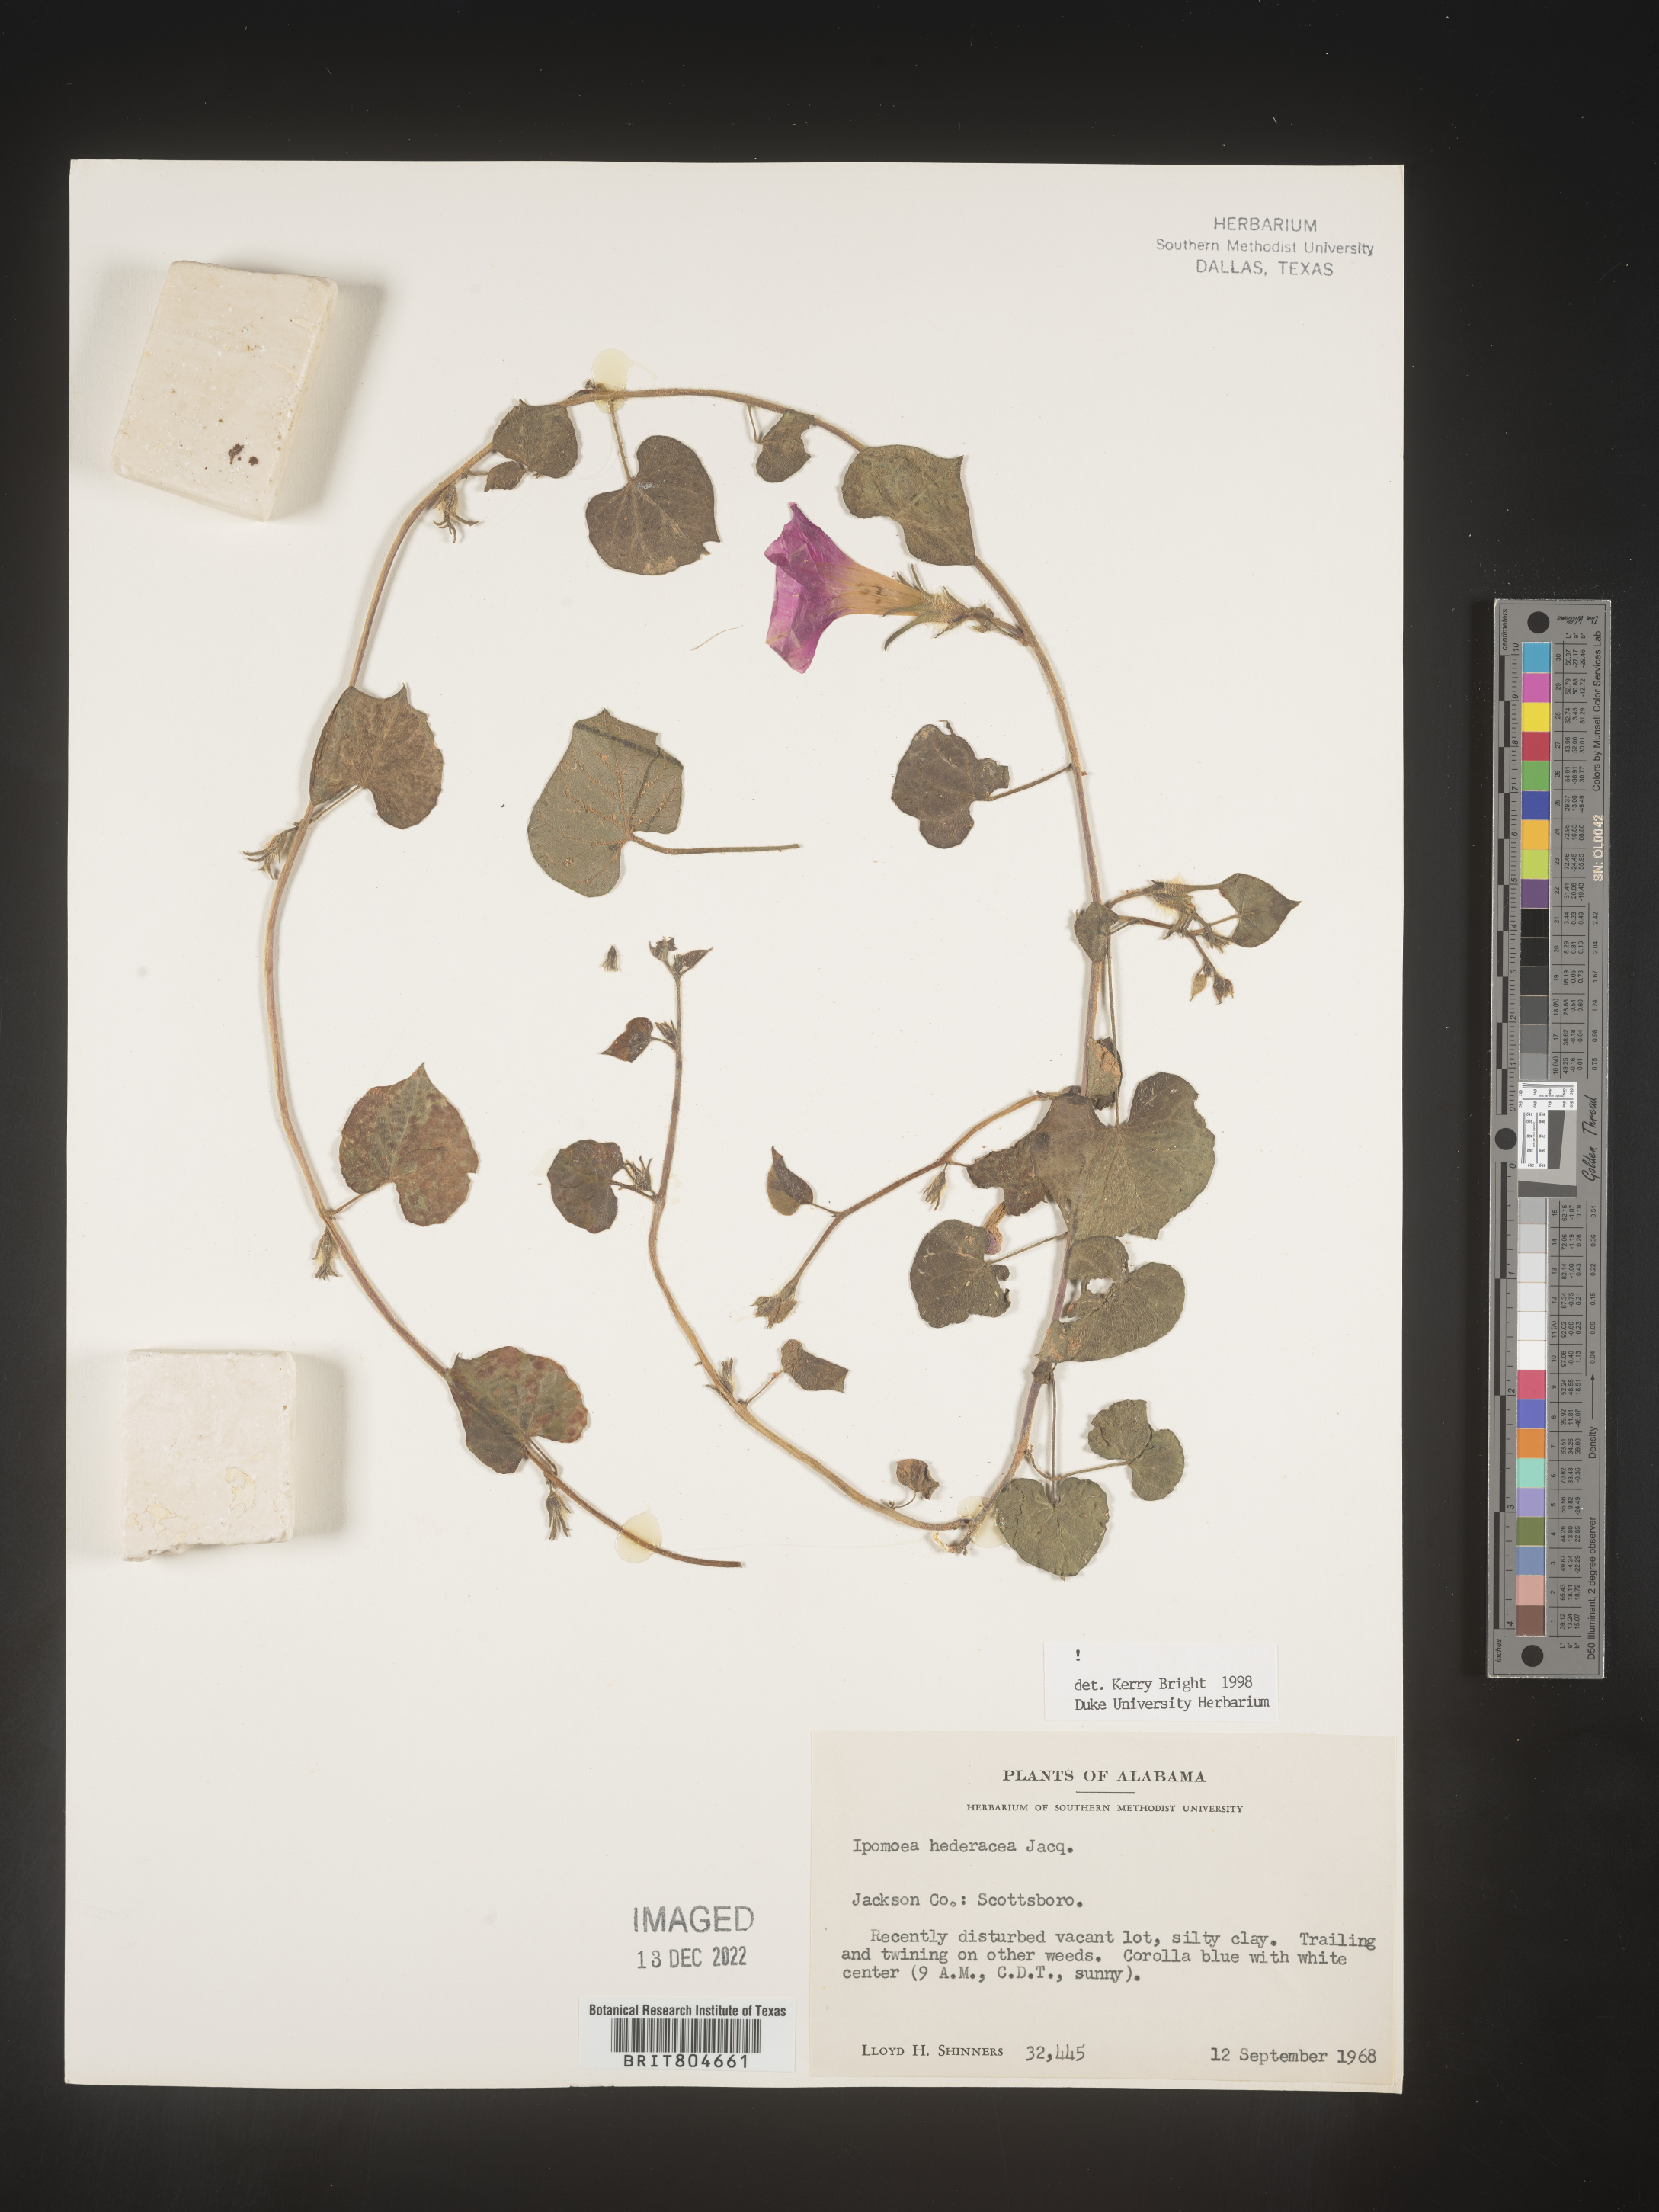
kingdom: Plantae
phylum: Tracheophyta
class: Magnoliopsida
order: Solanales
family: Convolvulaceae
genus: Ipomoea
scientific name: Ipomoea hederacea
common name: Ivy-leaved morning-glory
